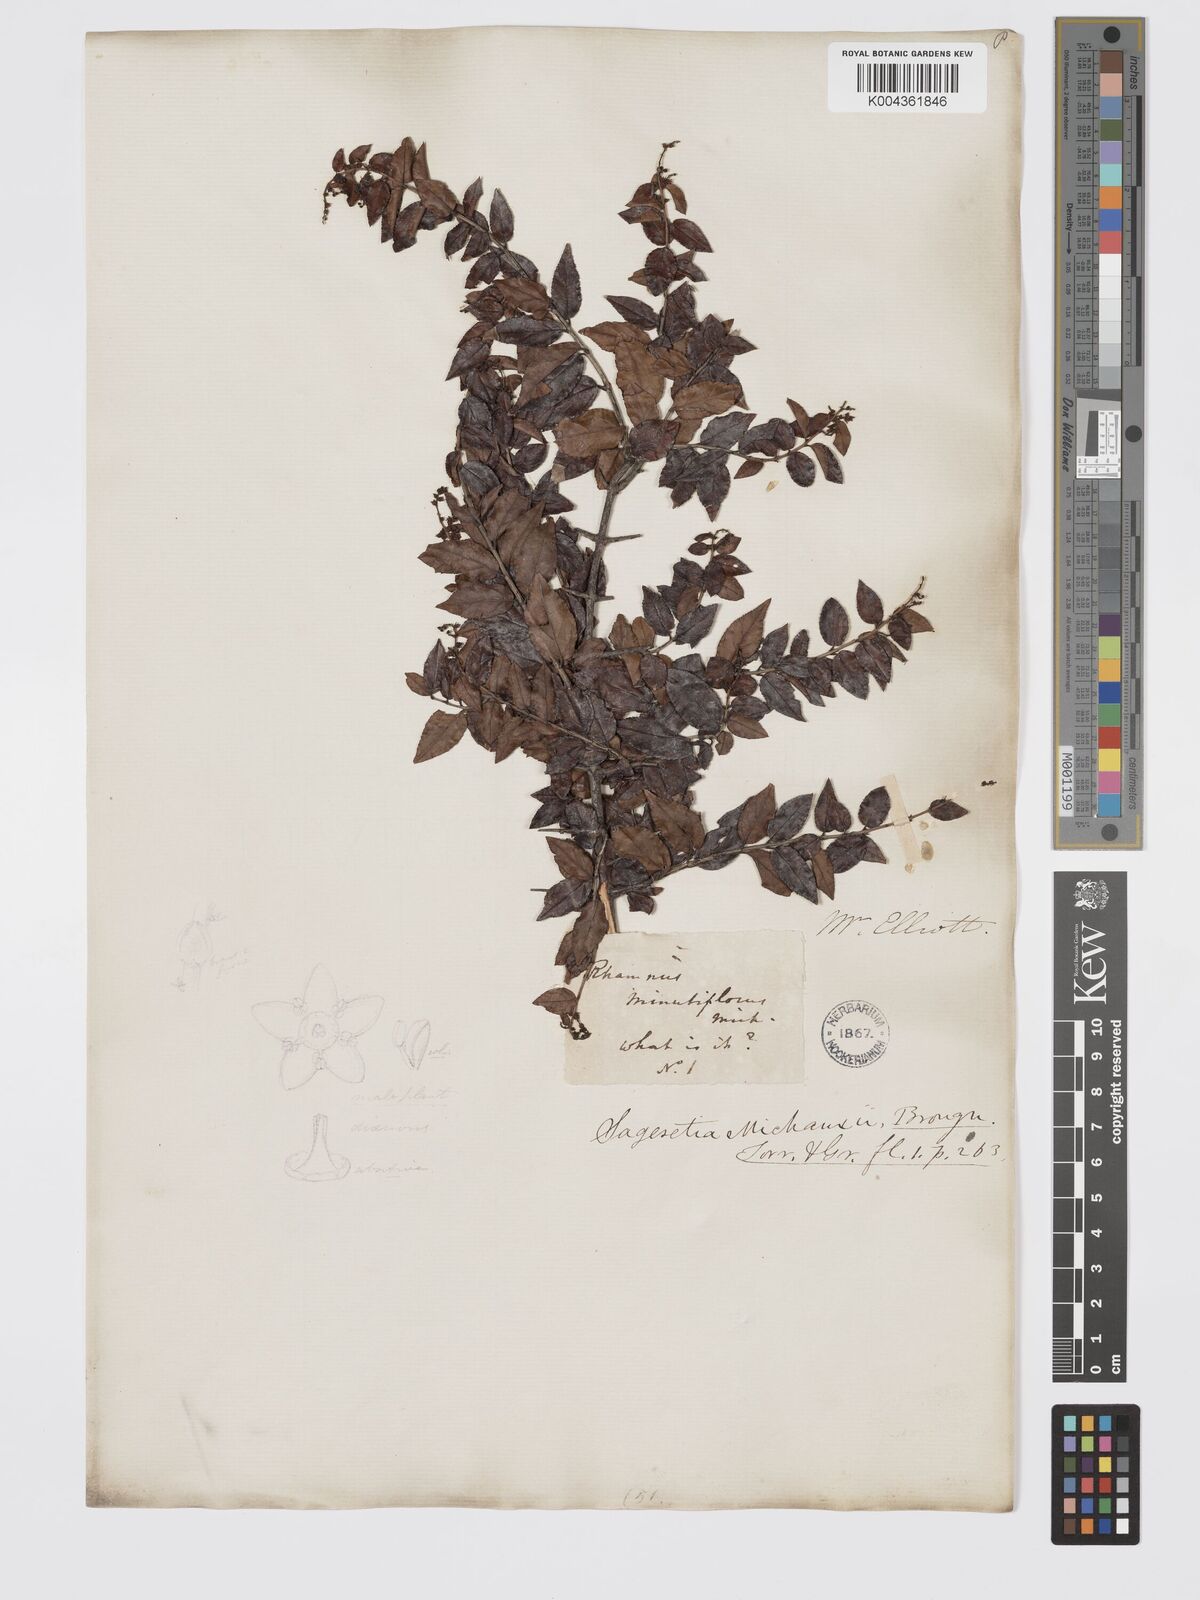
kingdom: Plantae
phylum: Tracheophyta
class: Magnoliopsida
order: Rosales
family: Rhamnaceae
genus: Sageretia
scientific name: Sageretia minutiflora
